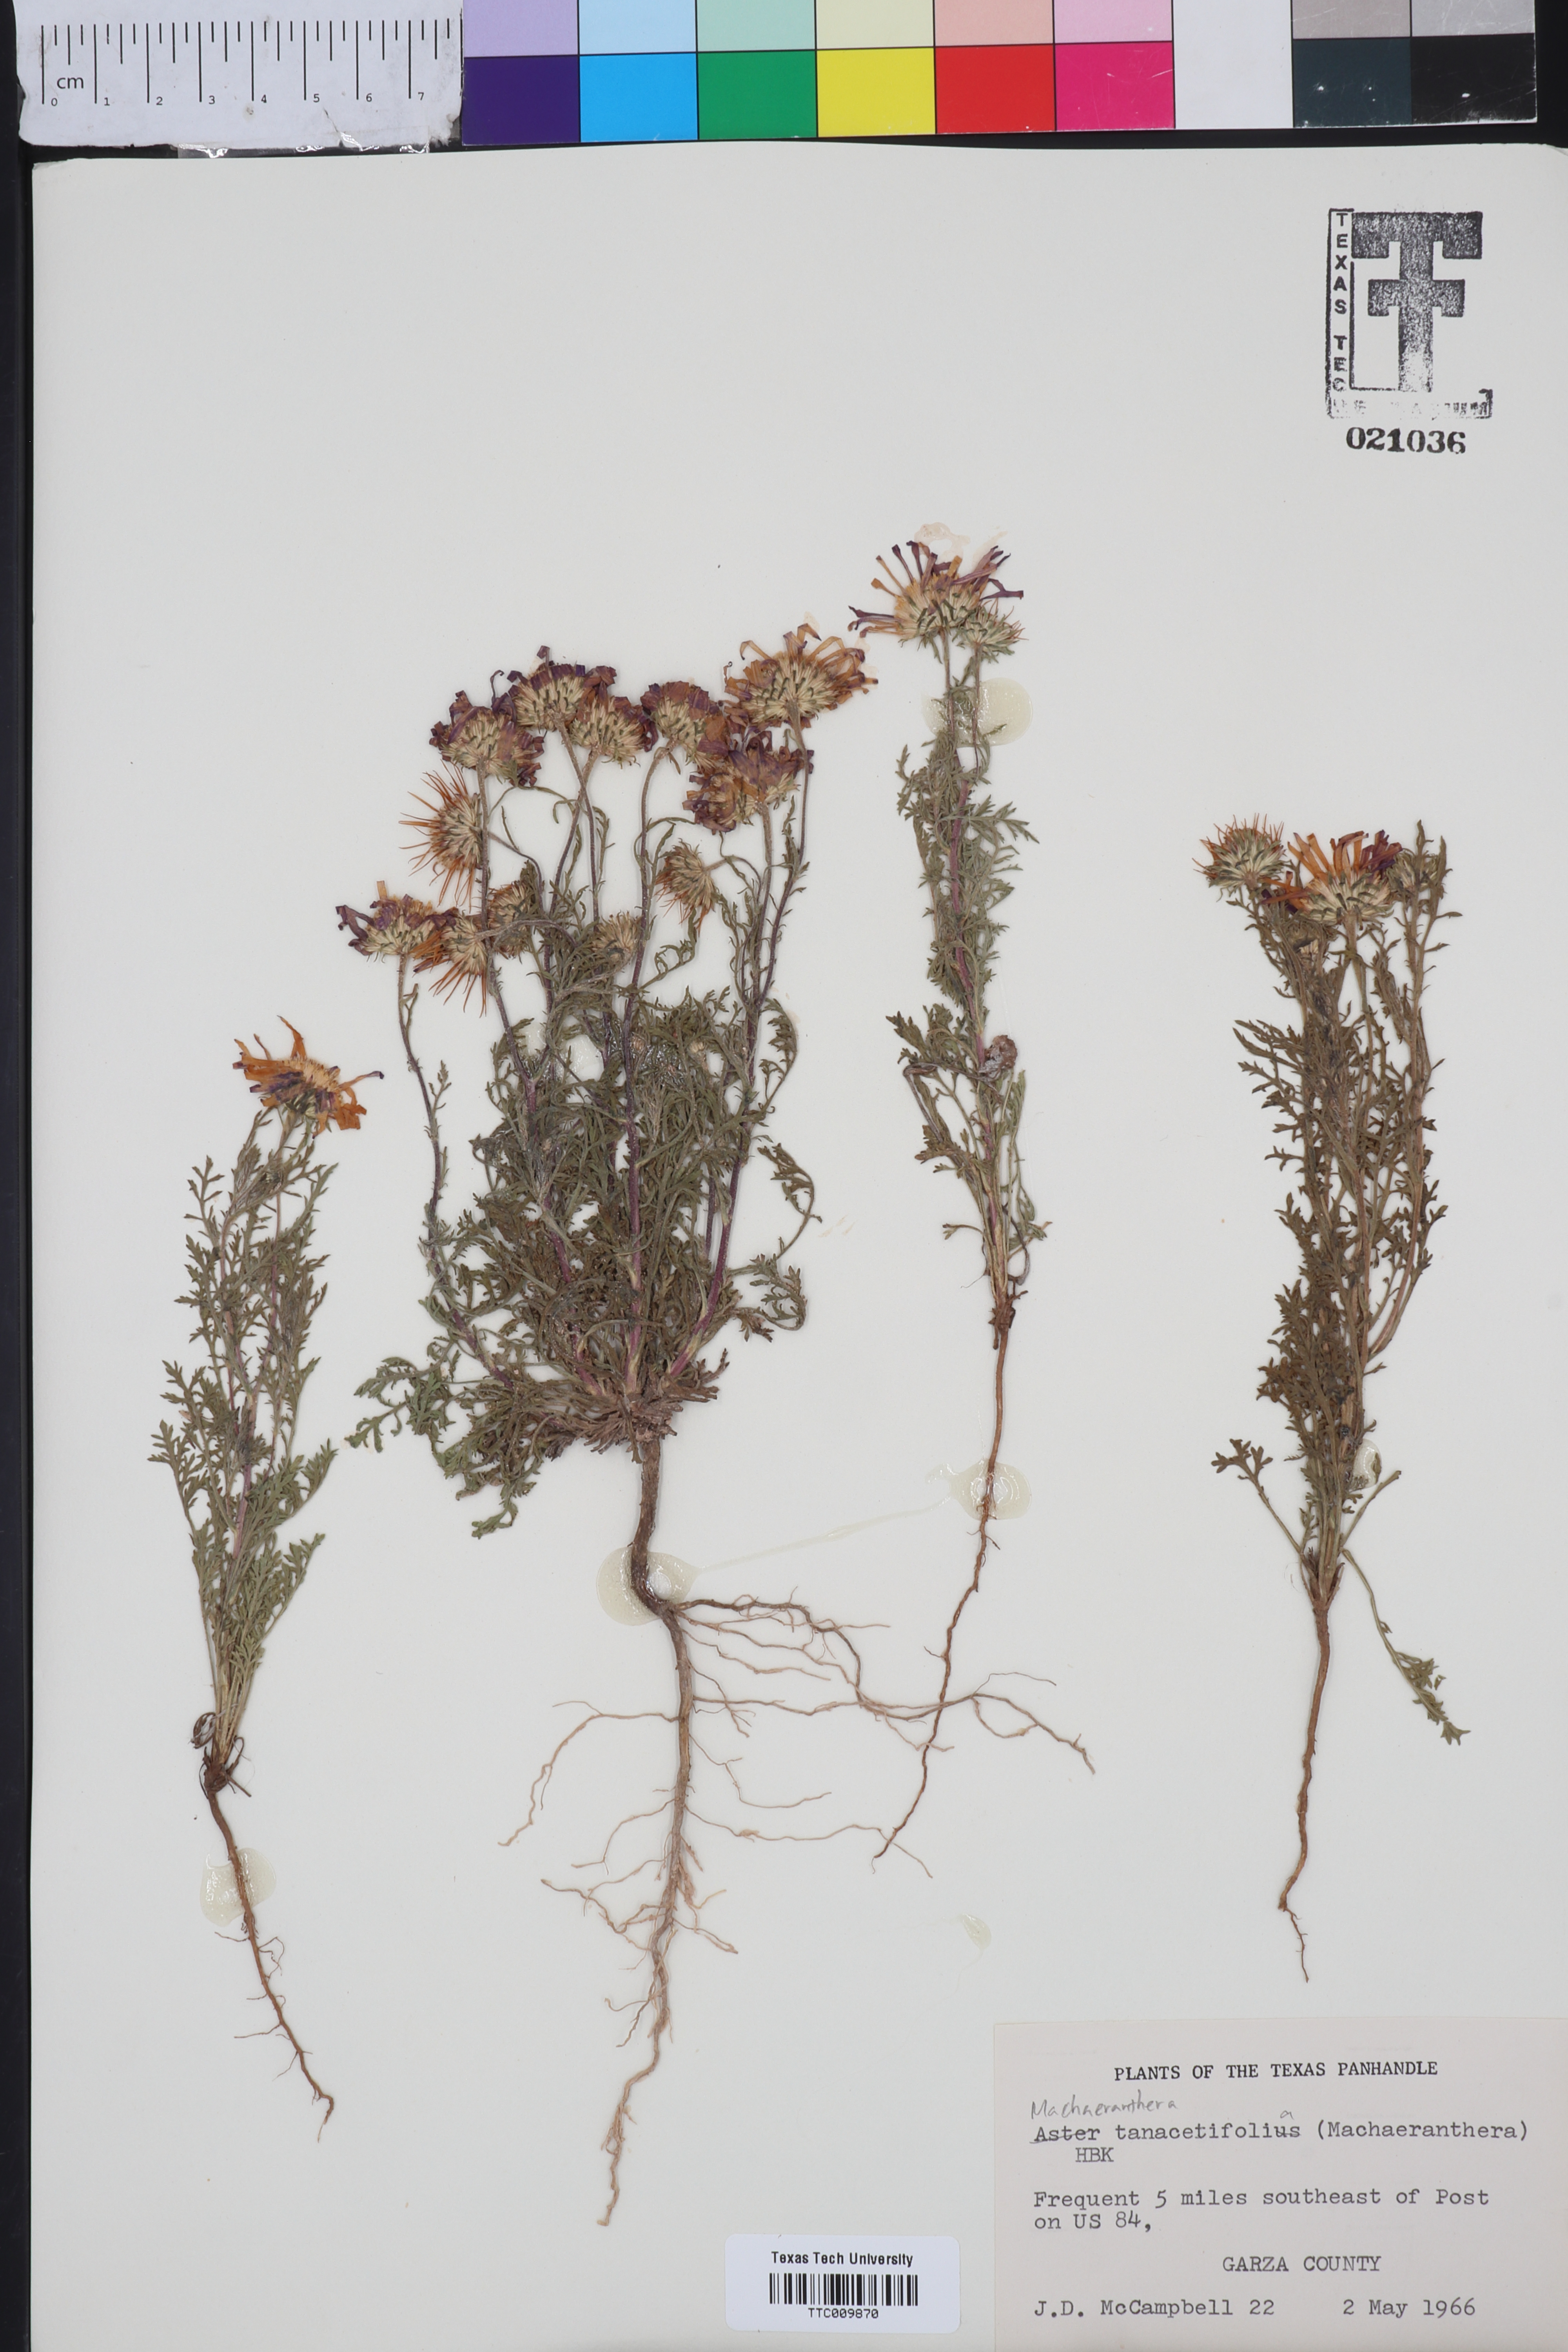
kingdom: Plantae
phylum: Tracheophyta
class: Magnoliopsida
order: Asterales
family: Asteraceae
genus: Machaeranthera
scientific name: Machaeranthera tanacetifolia
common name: Tansy-aster
